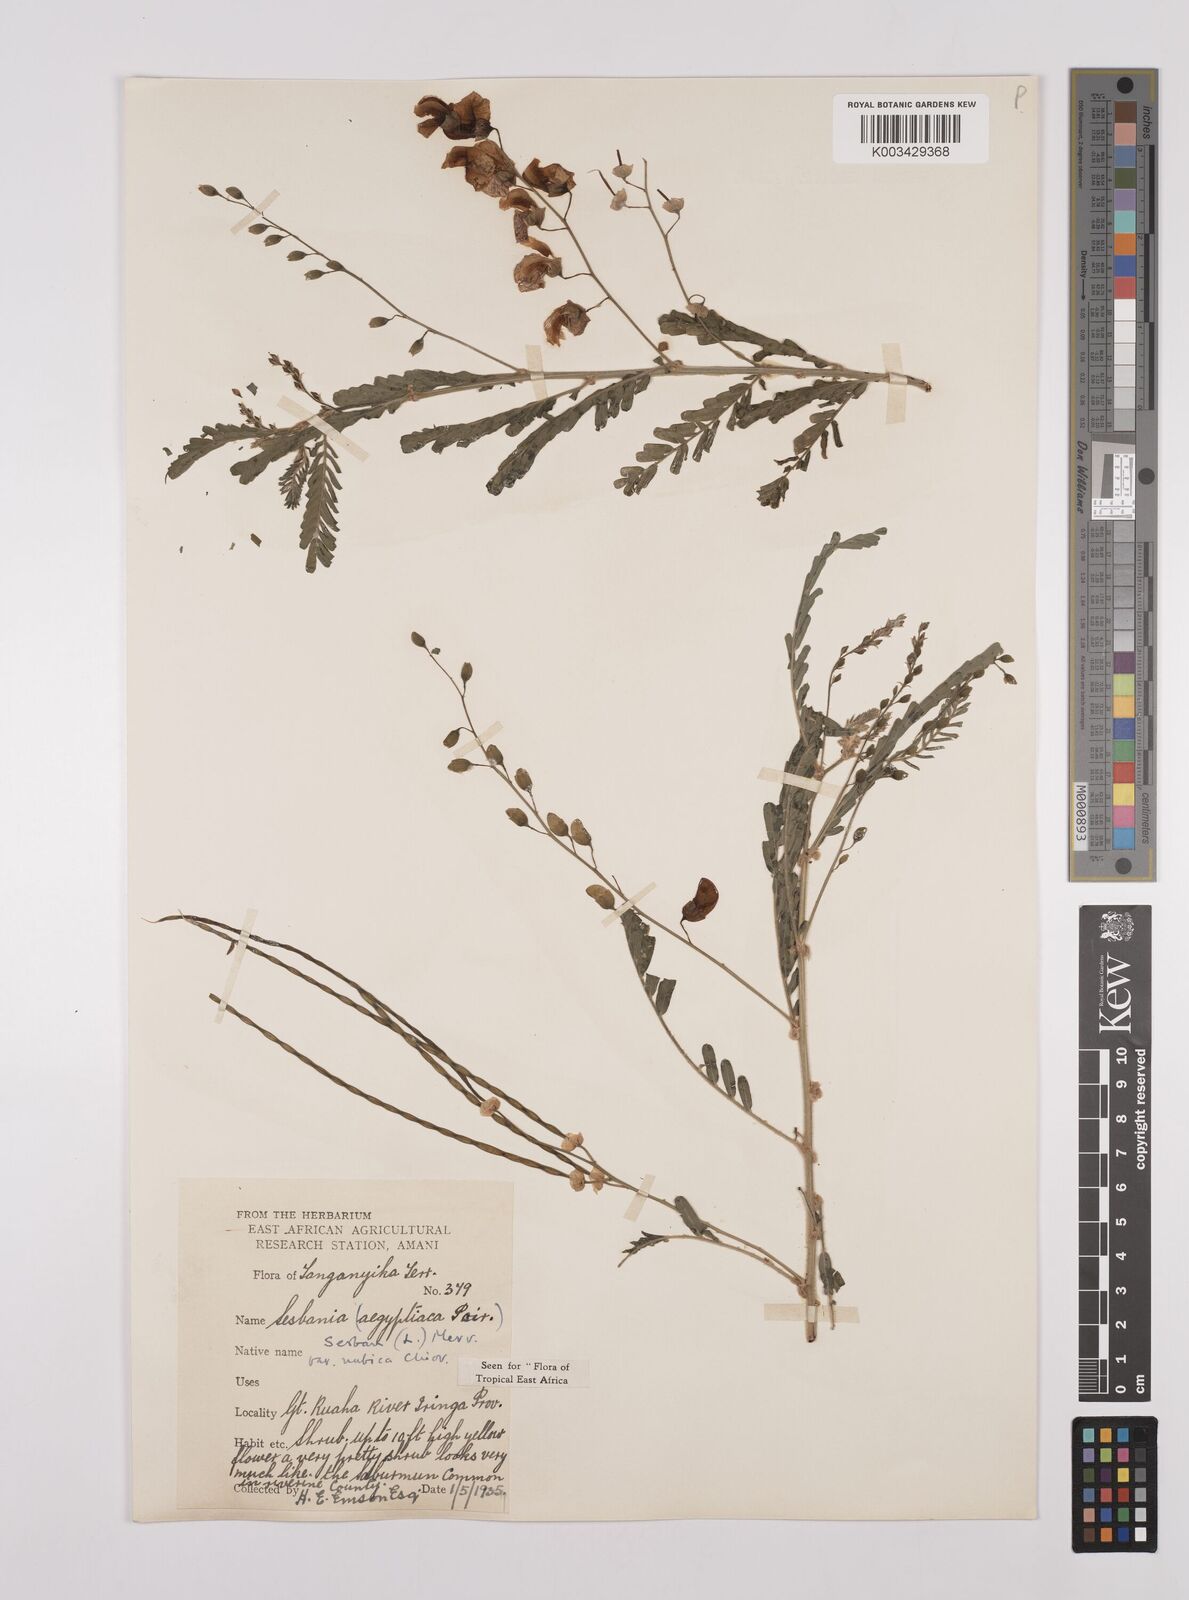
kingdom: Plantae
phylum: Tracheophyta
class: Magnoliopsida
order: Fabales
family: Fabaceae
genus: Sesbania
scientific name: Sesbania sesban
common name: Egyptian sesban
